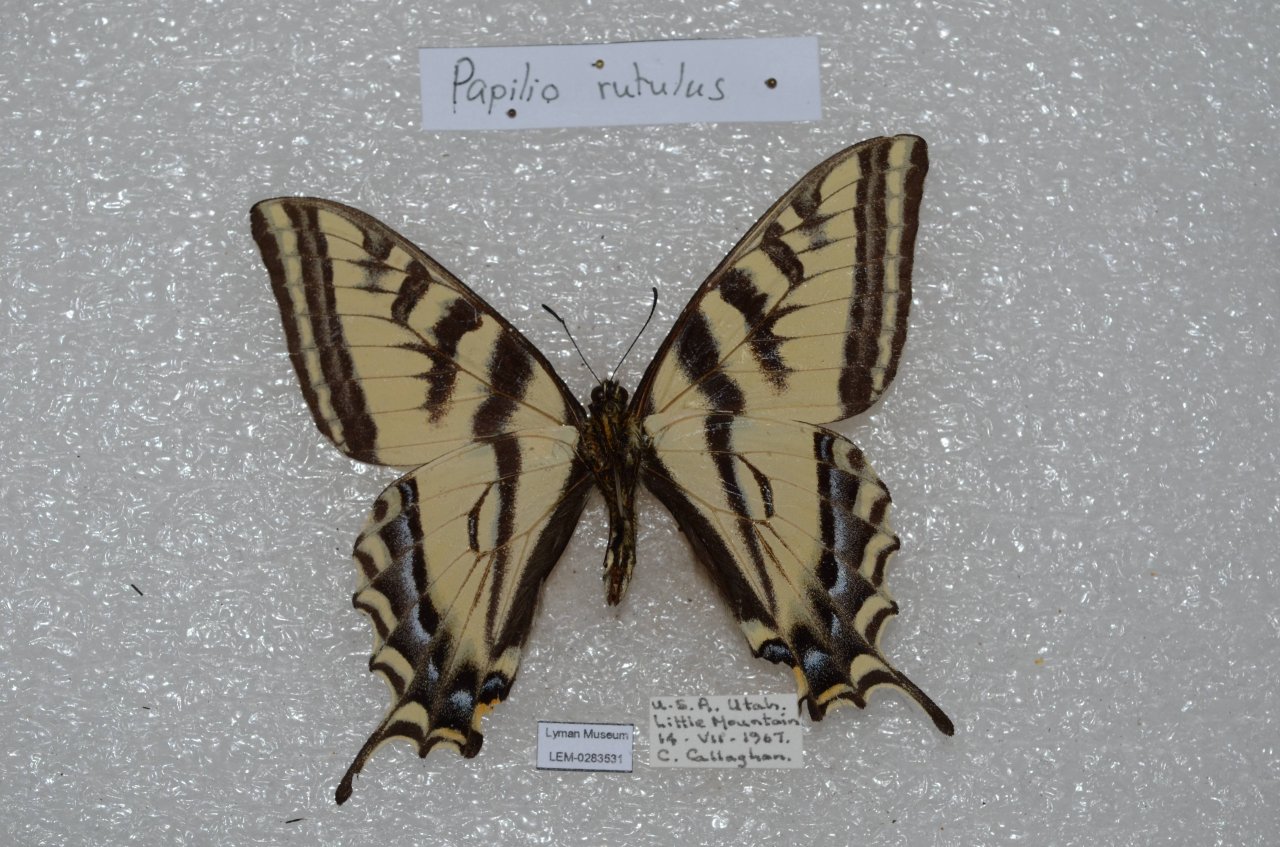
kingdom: Animalia
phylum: Arthropoda
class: Insecta
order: Lepidoptera
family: Papilionidae
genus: Pterourus
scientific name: Pterourus rutulus
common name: Western Tiger Swallowtail
